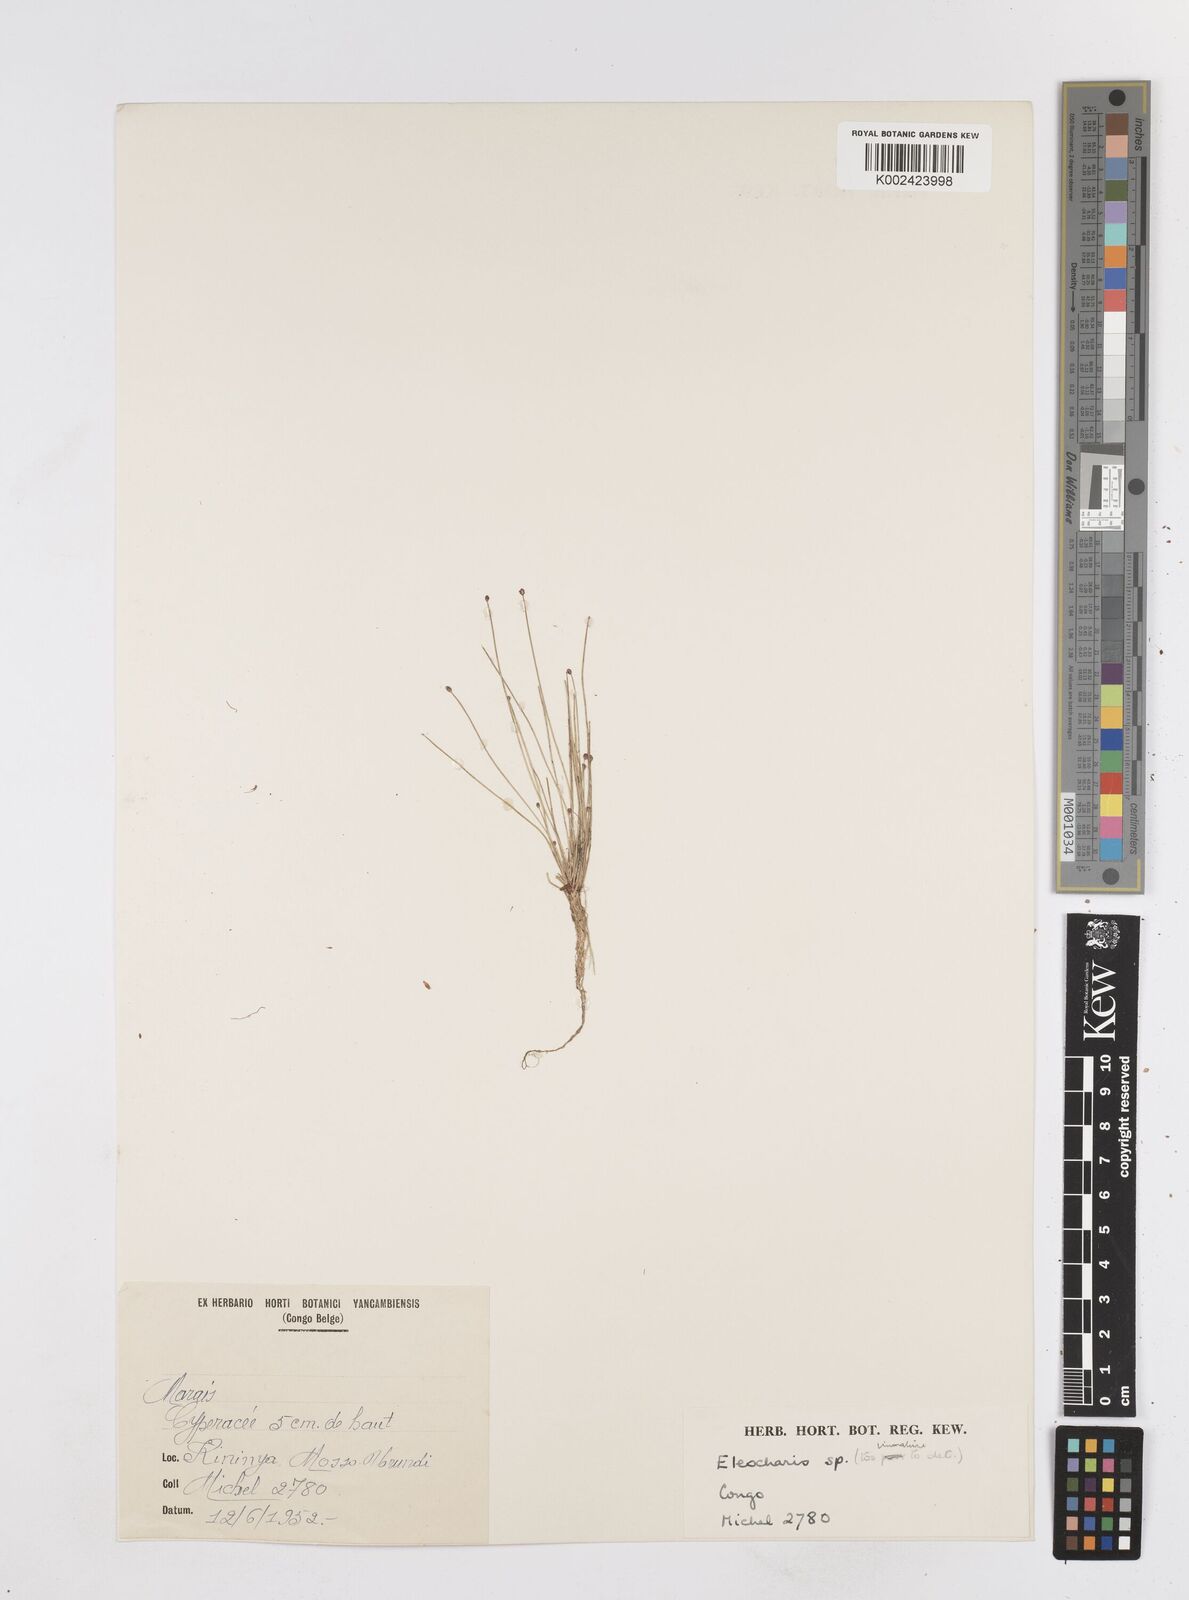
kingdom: Plantae
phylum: Tracheophyta
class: Liliopsida
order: Poales
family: Cyperaceae
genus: Eleocharis
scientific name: Eleocharis
